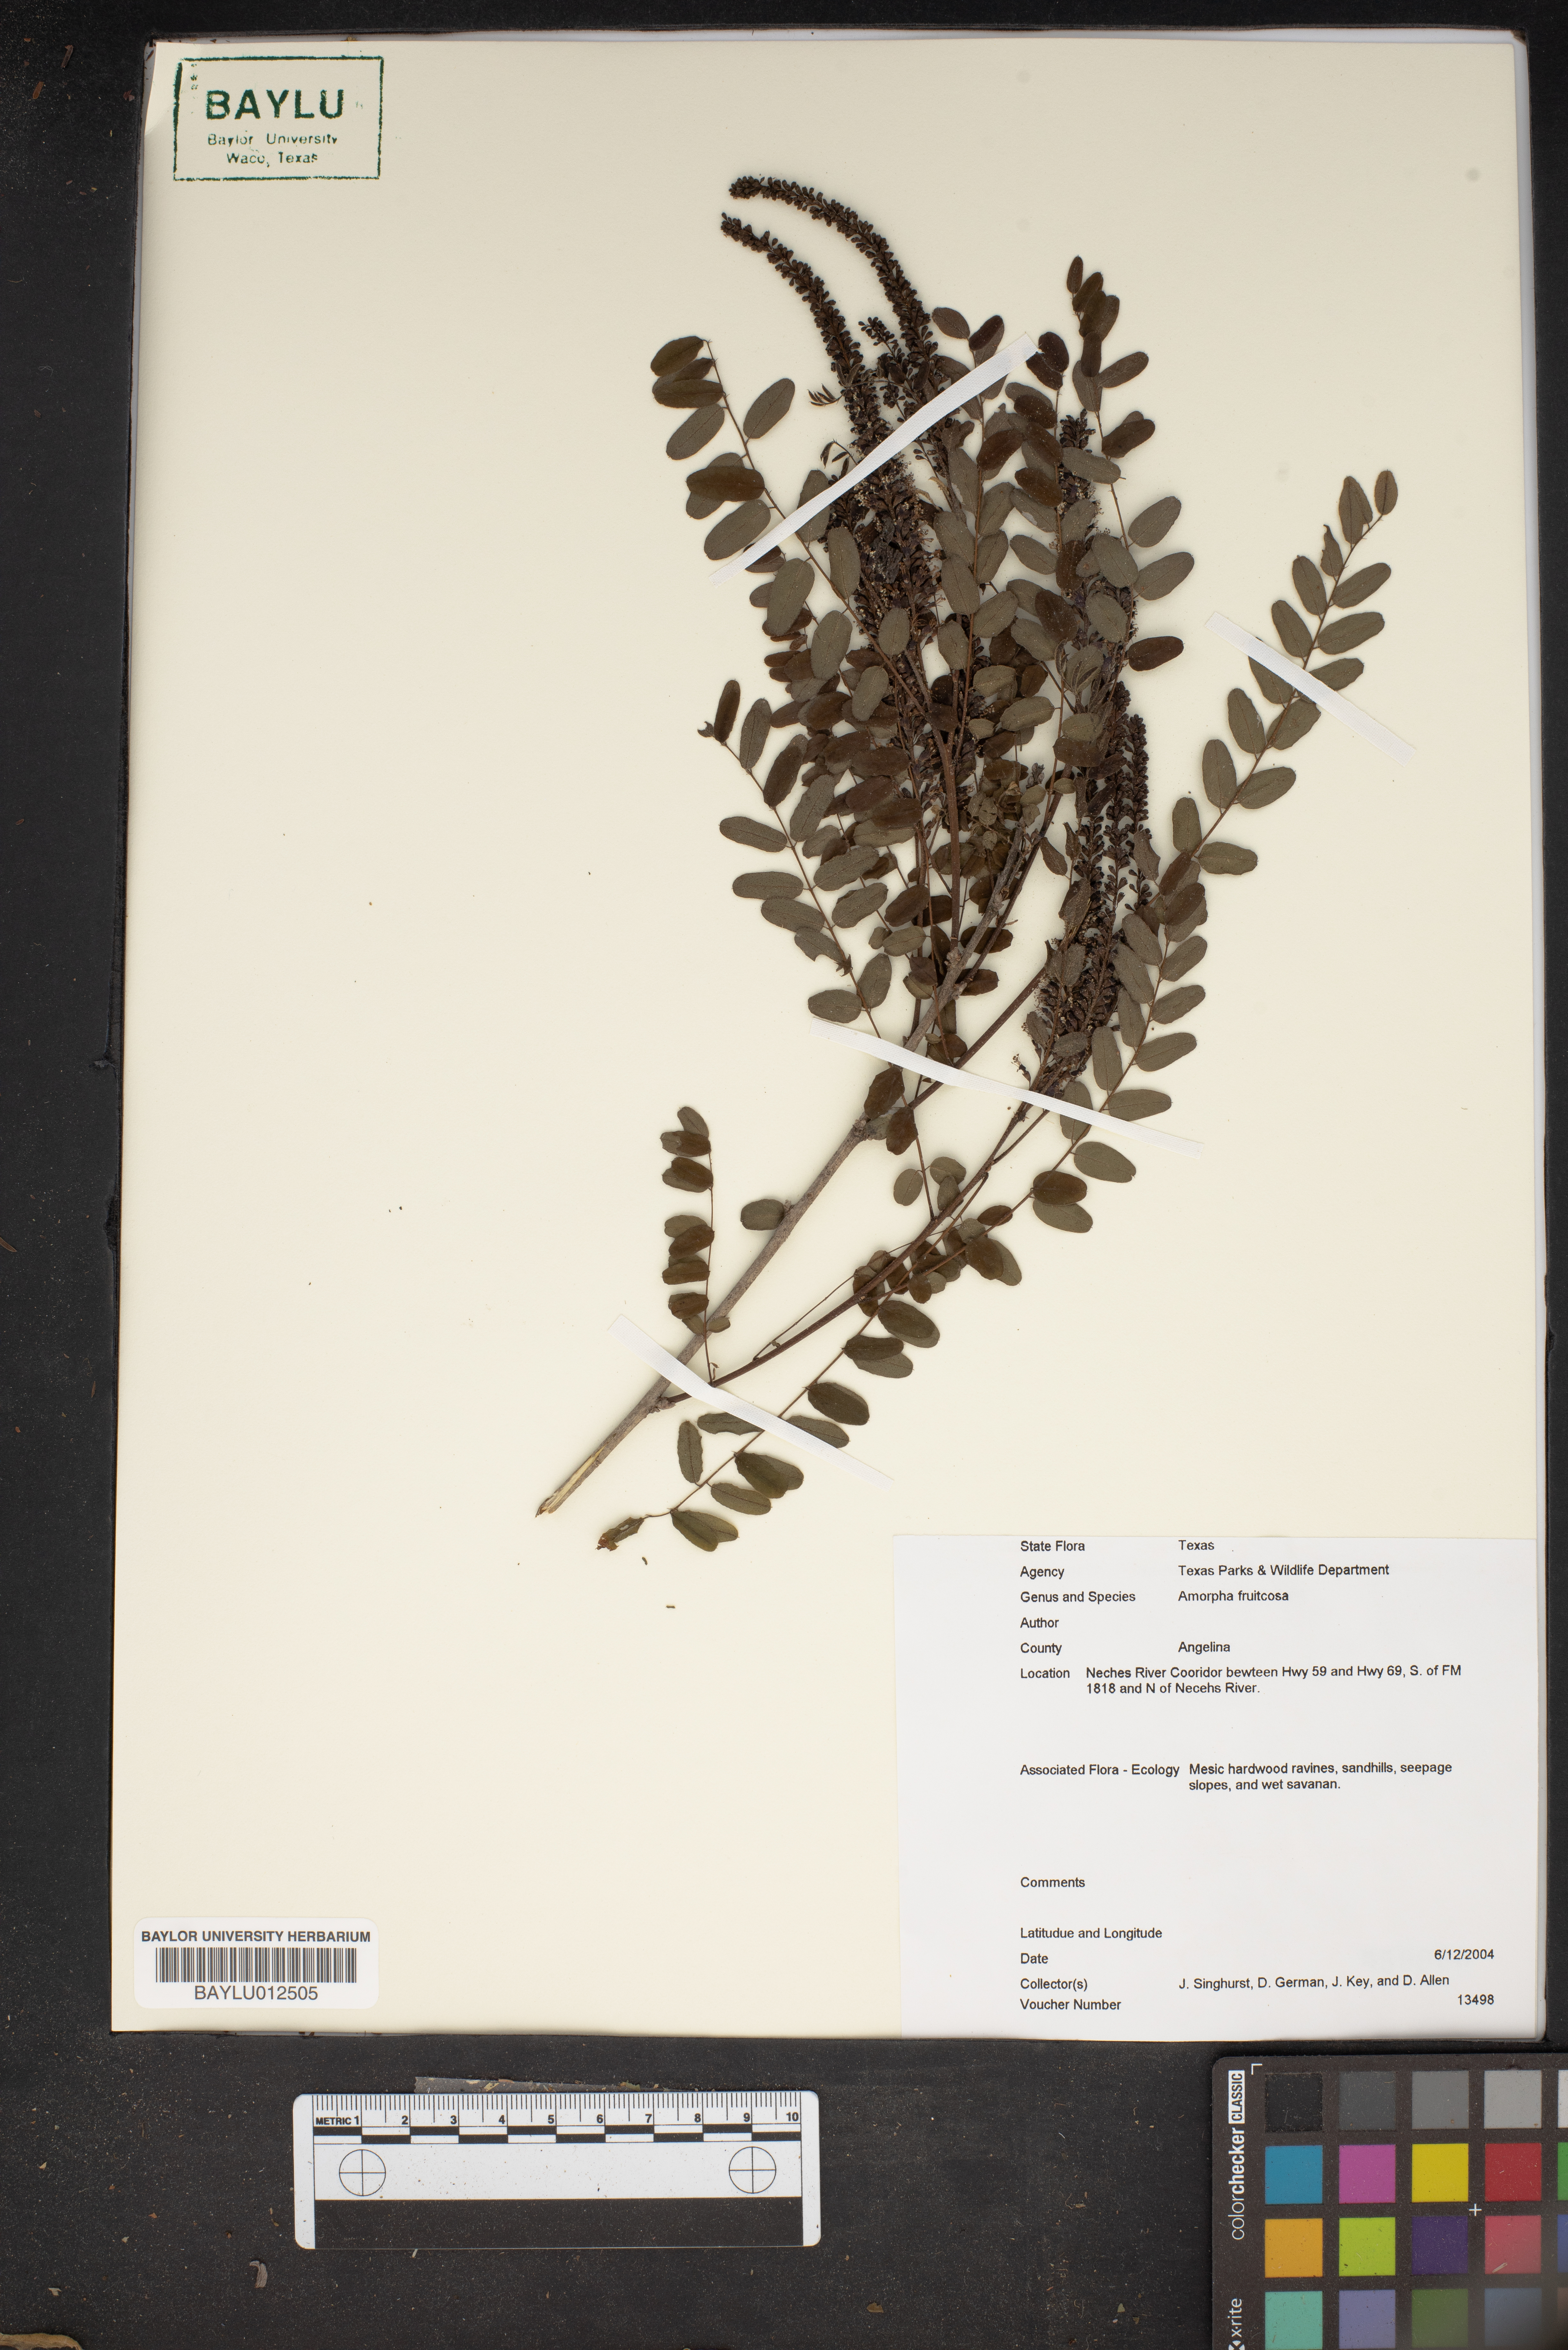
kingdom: Plantae
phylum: Tracheophyta
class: Magnoliopsida
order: Fabales
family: Fabaceae
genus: Amorpha
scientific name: Amorpha fruticosa
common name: False indigo
